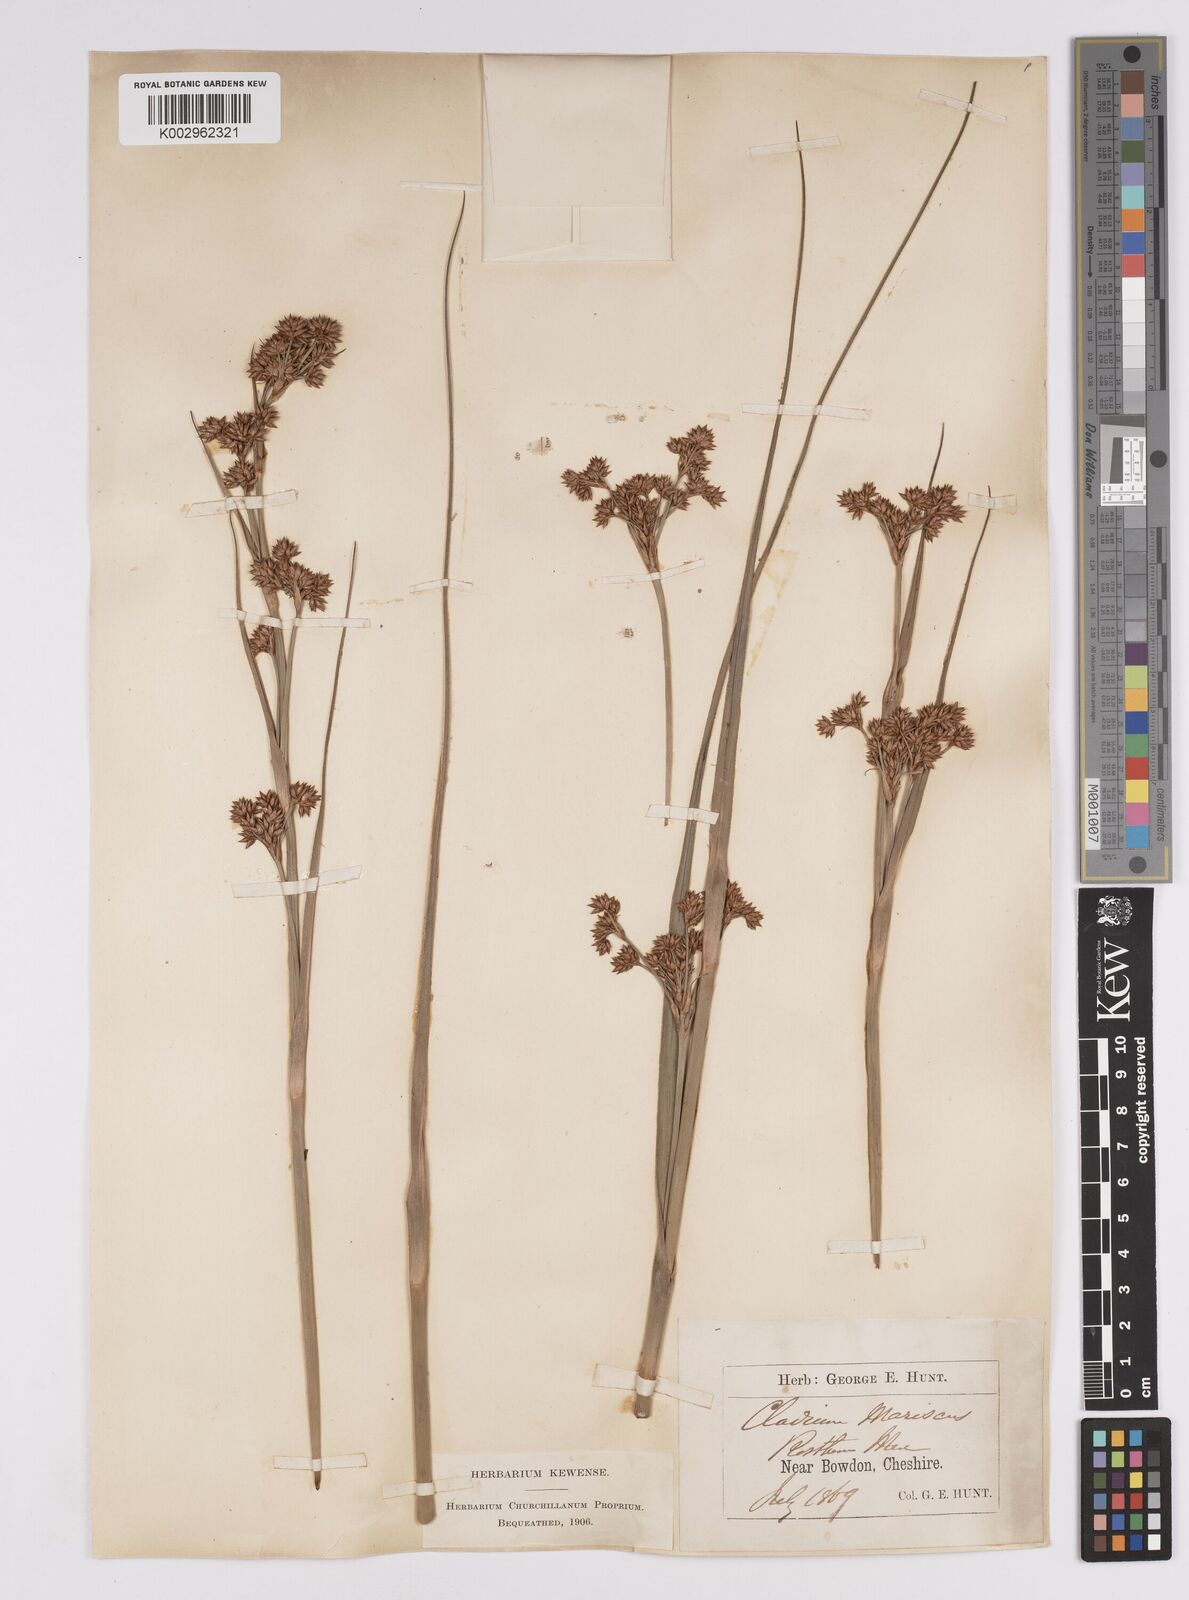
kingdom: Plantae
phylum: Tracheophyta
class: Liliopsida
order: Poales
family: Cyperaceae
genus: Cladium
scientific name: Cladium mariscus
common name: Great fen-sedge
